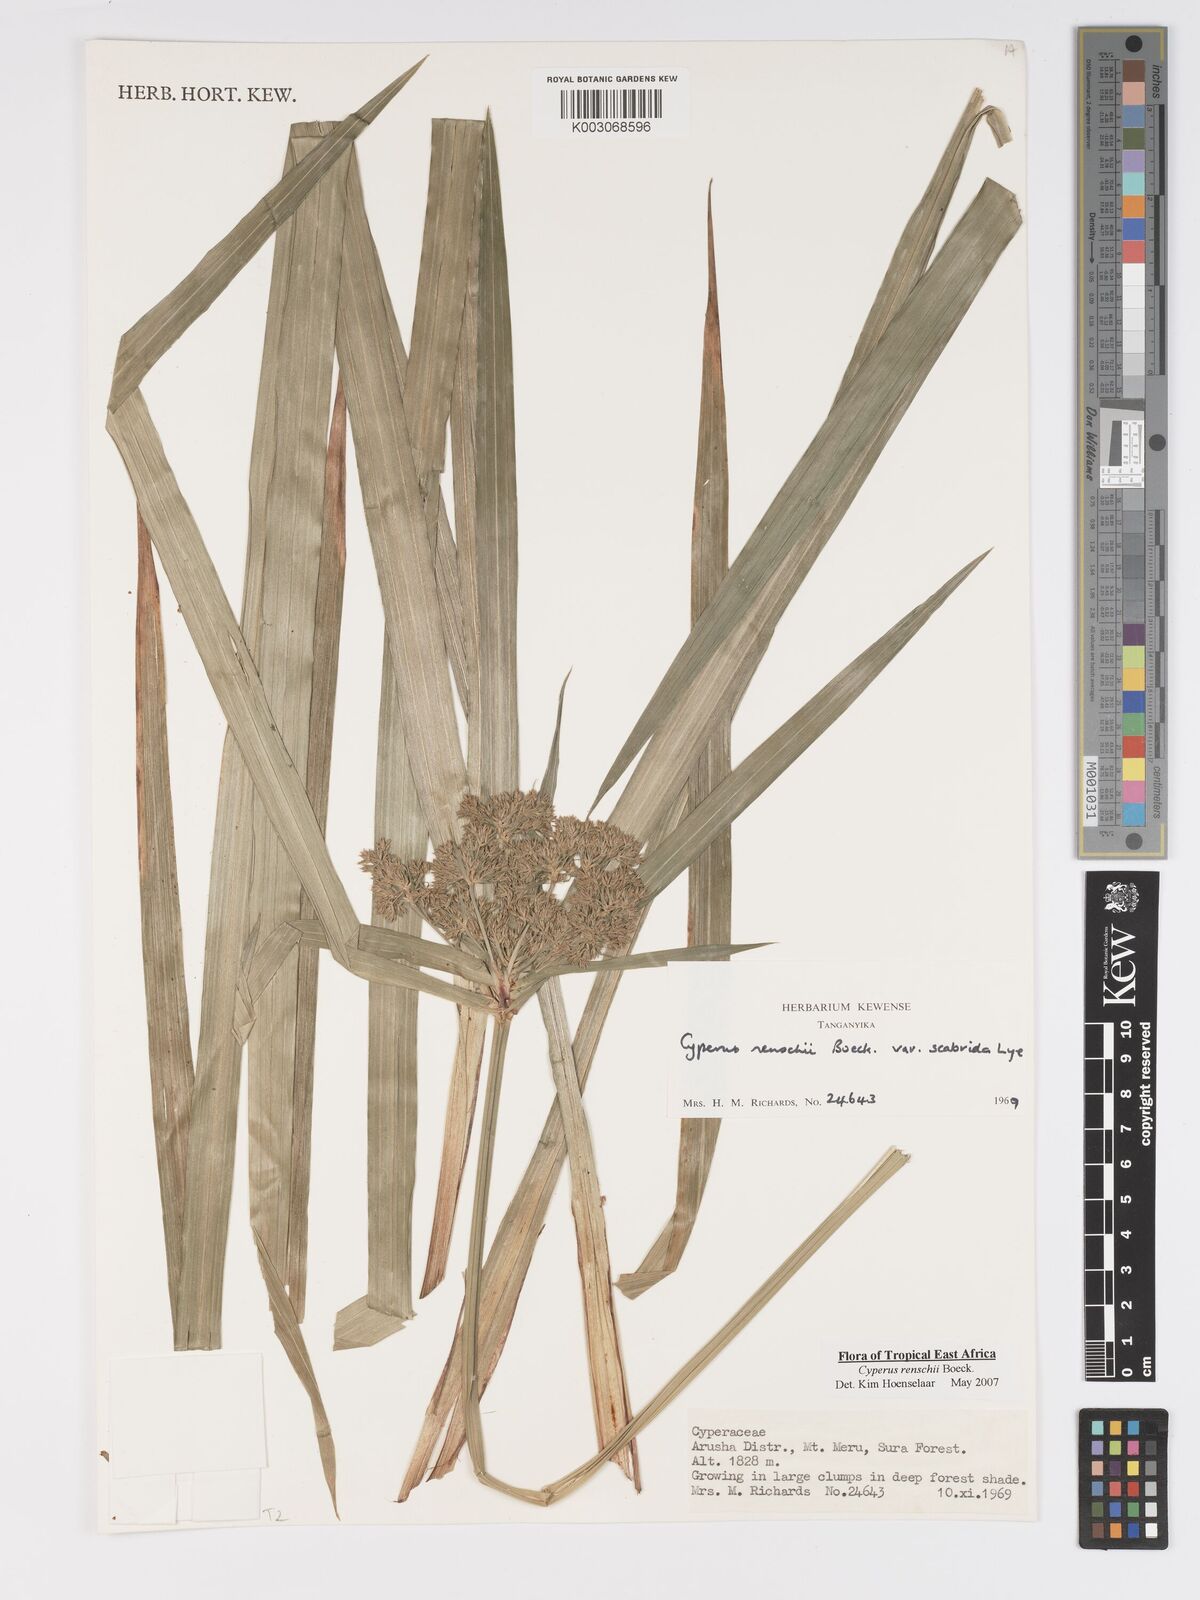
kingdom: Plantae
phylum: Tracheophyta
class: Liliopsida
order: Poales
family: Cyperaceae
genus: Cyperus
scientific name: Cyperus renschii
